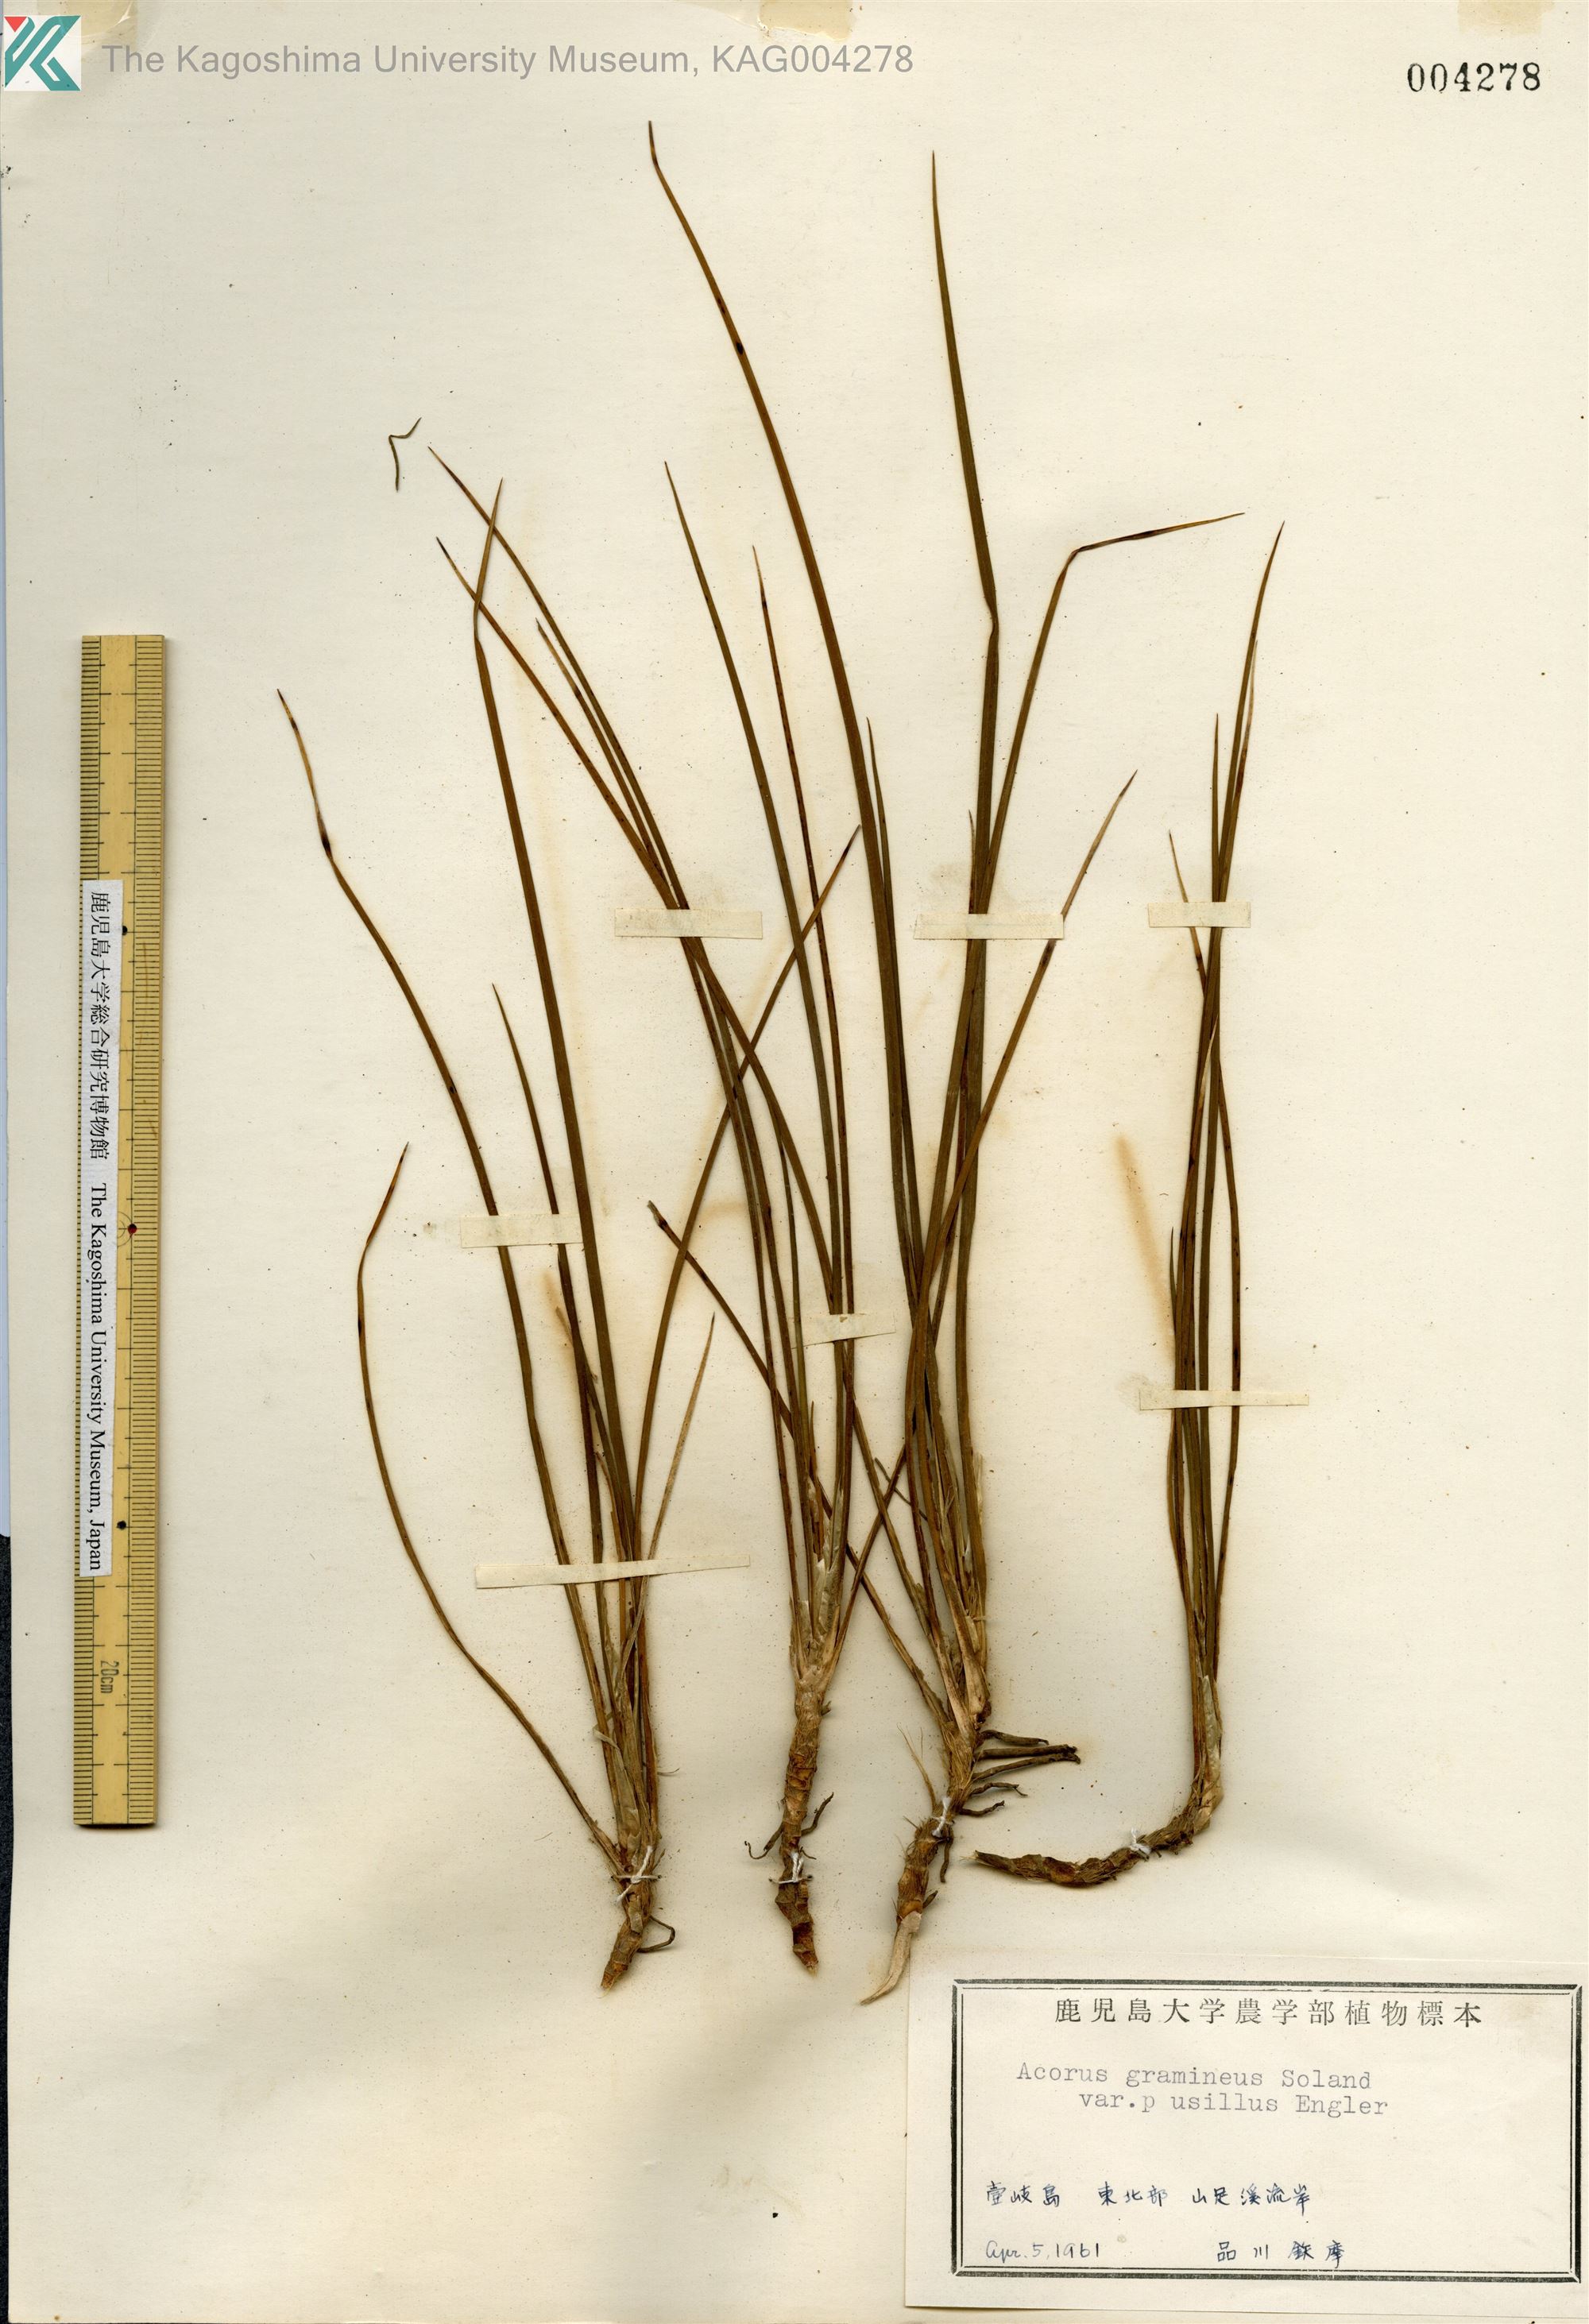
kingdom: Plantae
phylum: Tracheophyta
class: Liliopsida
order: Acorales
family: Acoraceae
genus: Acorus
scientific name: Acorus gramineus
